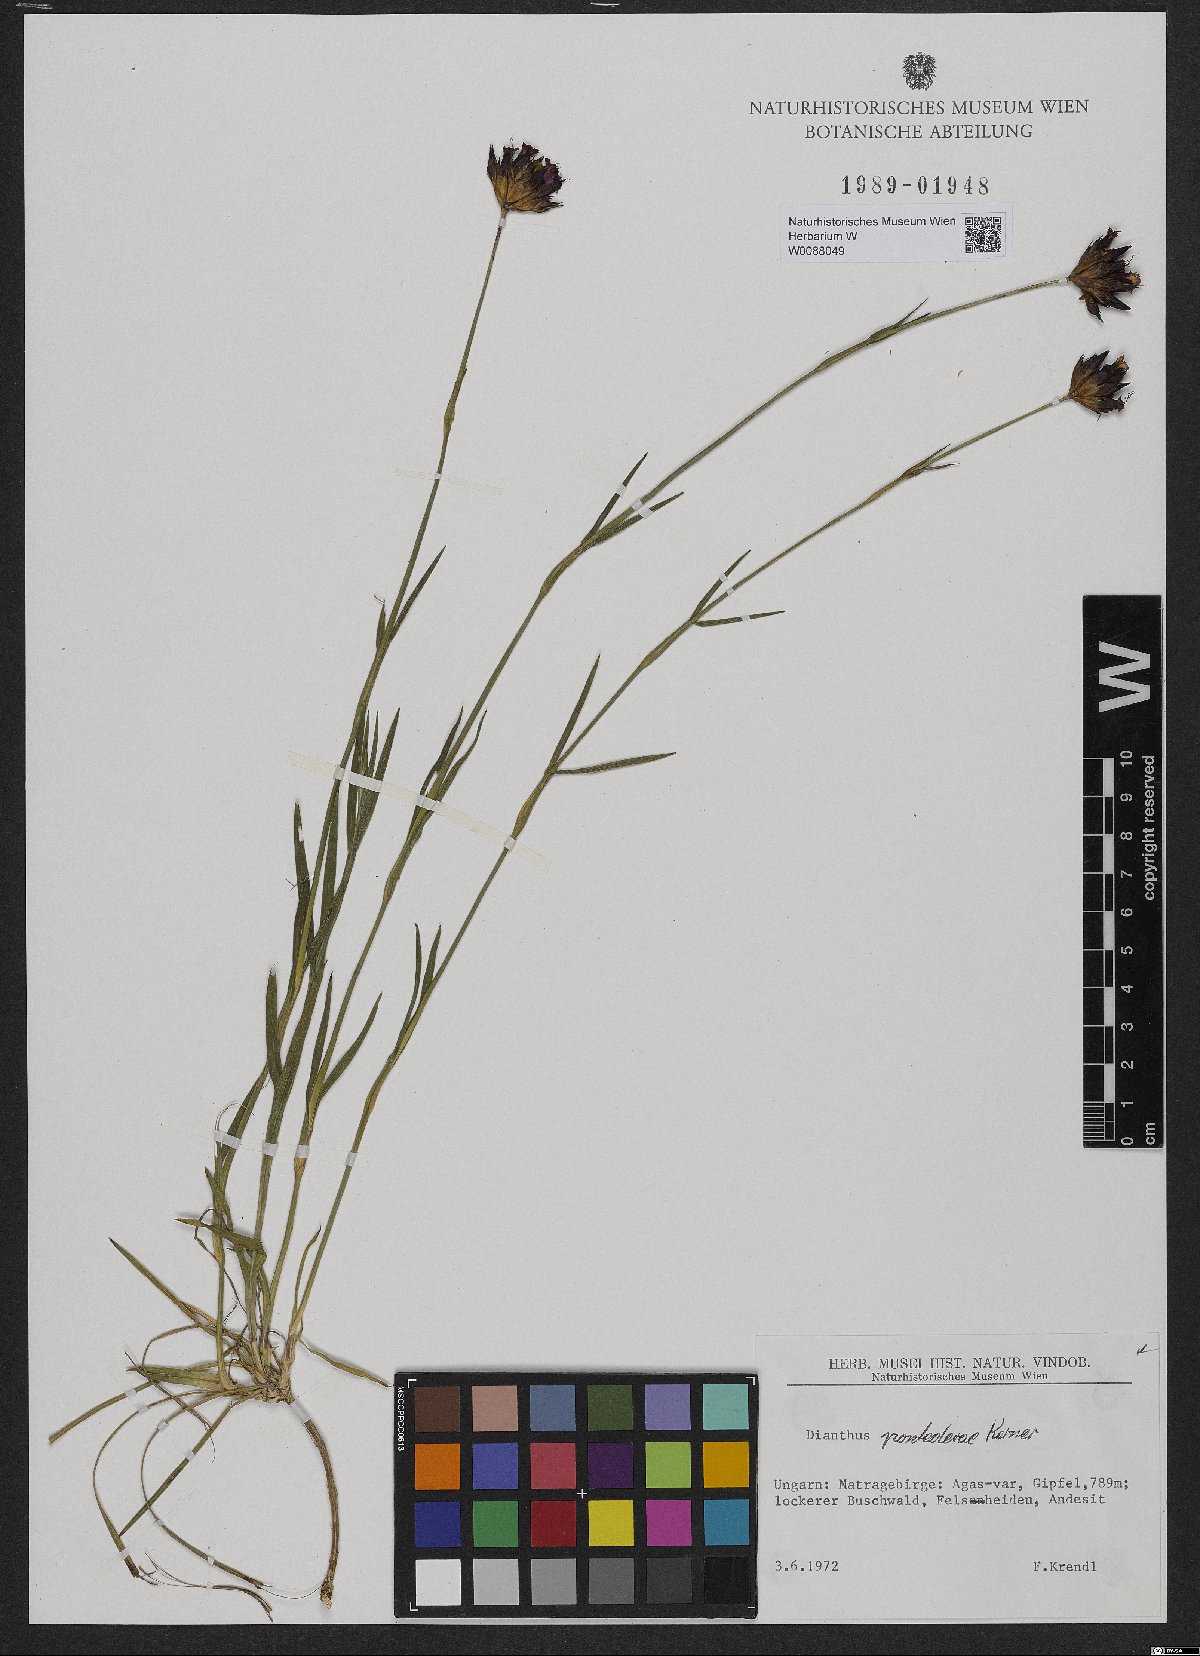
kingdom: Plantae
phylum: Tracheophyta
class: Magnoliopsida
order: Caryophyllales
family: Caryophyllaceae
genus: Dianthus
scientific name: Dianthus pontederae
